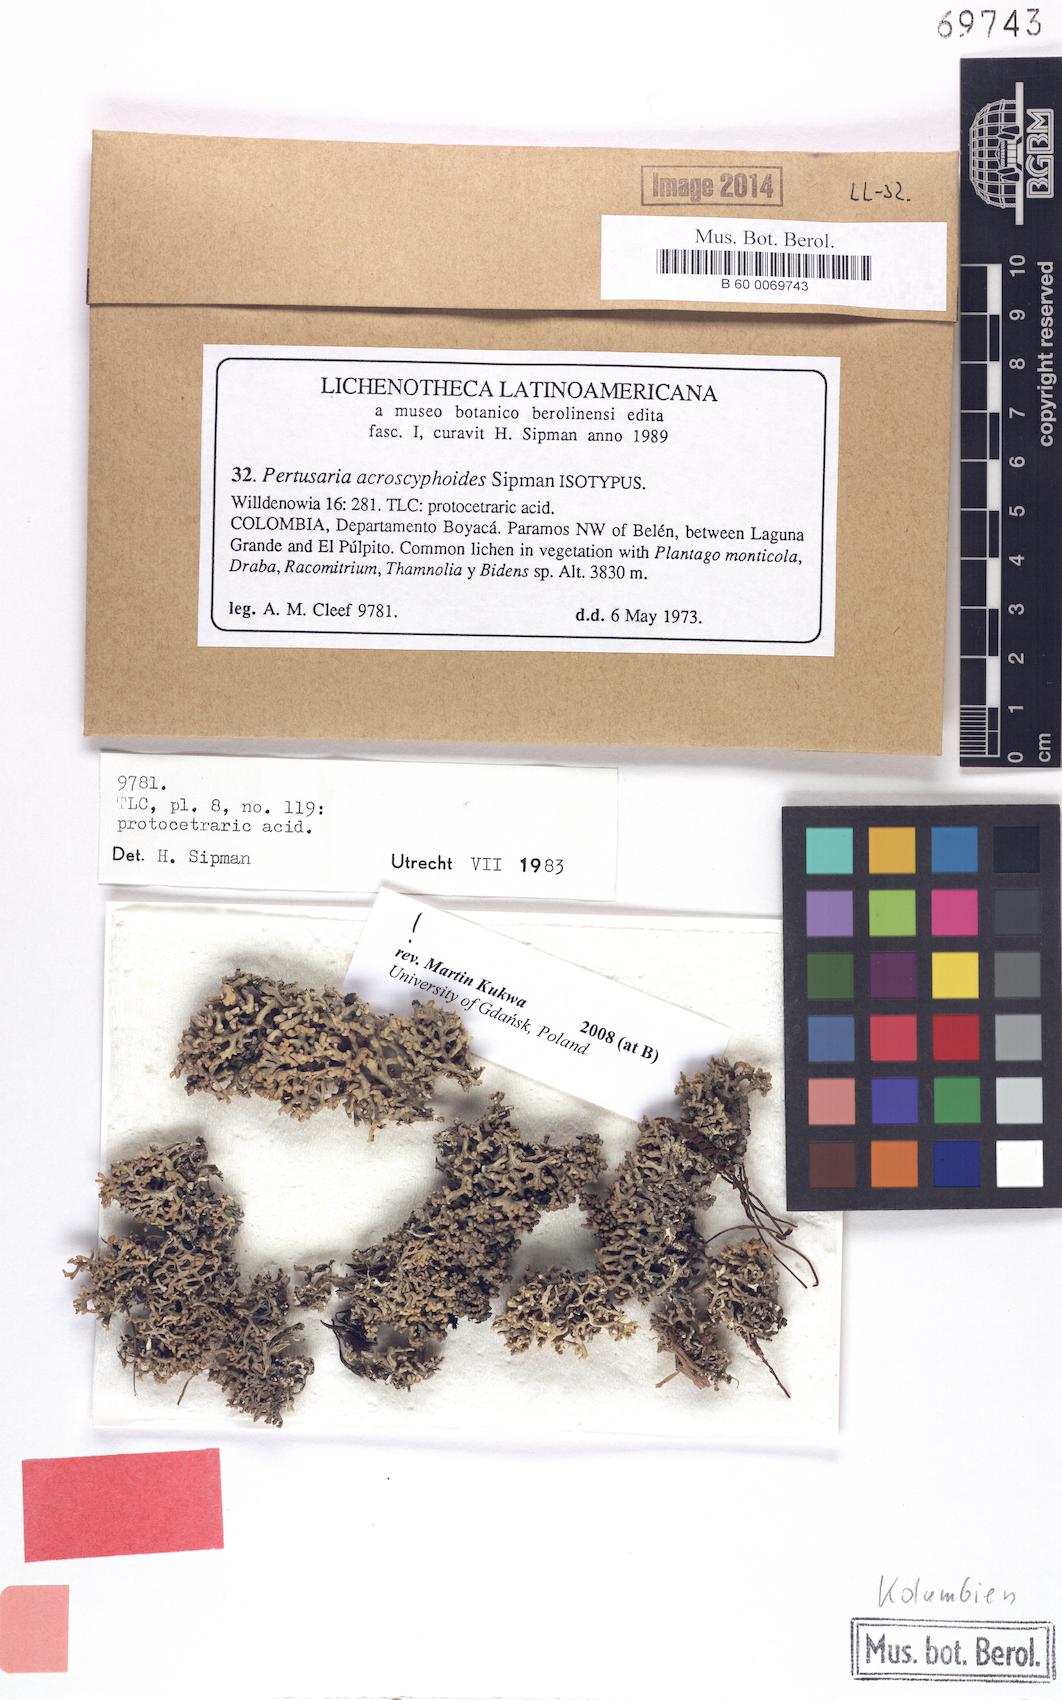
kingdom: Fungi
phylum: Ascomycota
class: Lecanoromycetes
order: Pertusariales
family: Pertusariaceae
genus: Lepra
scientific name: Lepra acroscyphoides
